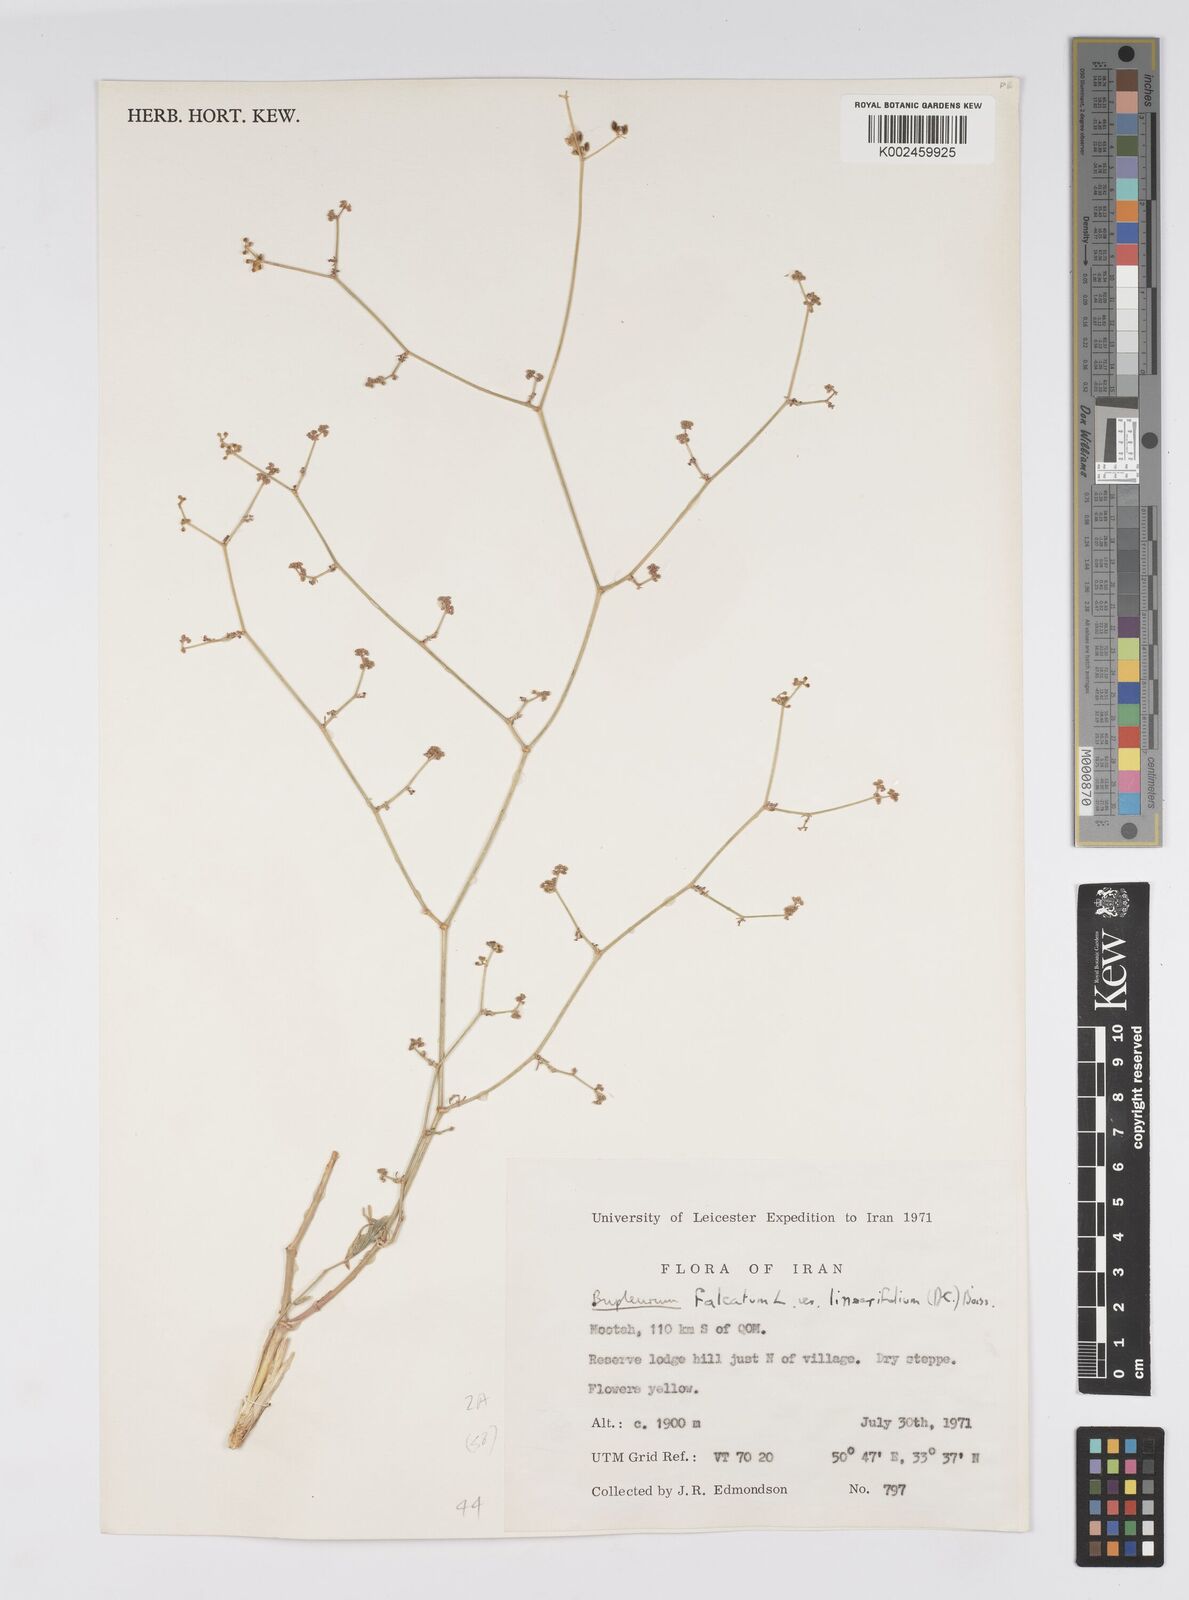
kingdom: Plantae
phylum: Tracheophyta
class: Magnoliopsida
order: Apiales
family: Apiaceae
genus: Bupleurum
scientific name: Bupleurum falcatum
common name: Sickle-leaved hare's-ear
